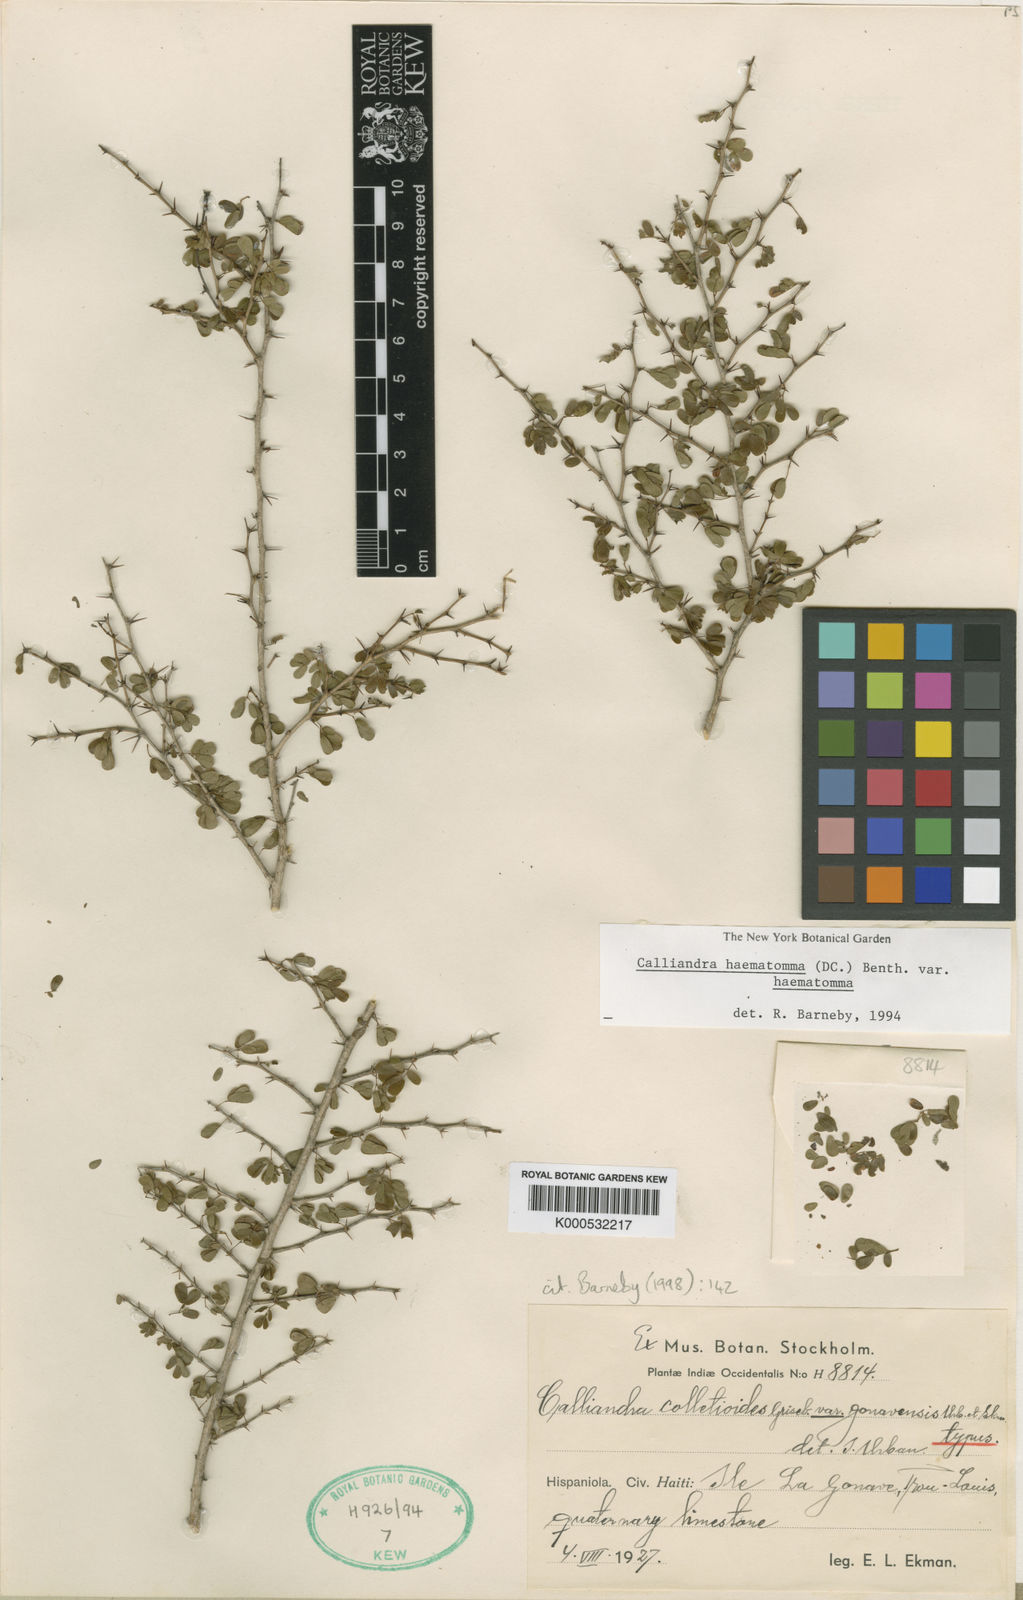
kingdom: Plantae
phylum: Tracheophyta
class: Magnoliopsida
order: Fabales
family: Fabaceae
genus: Calliandra
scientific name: Calliandra haematomma
